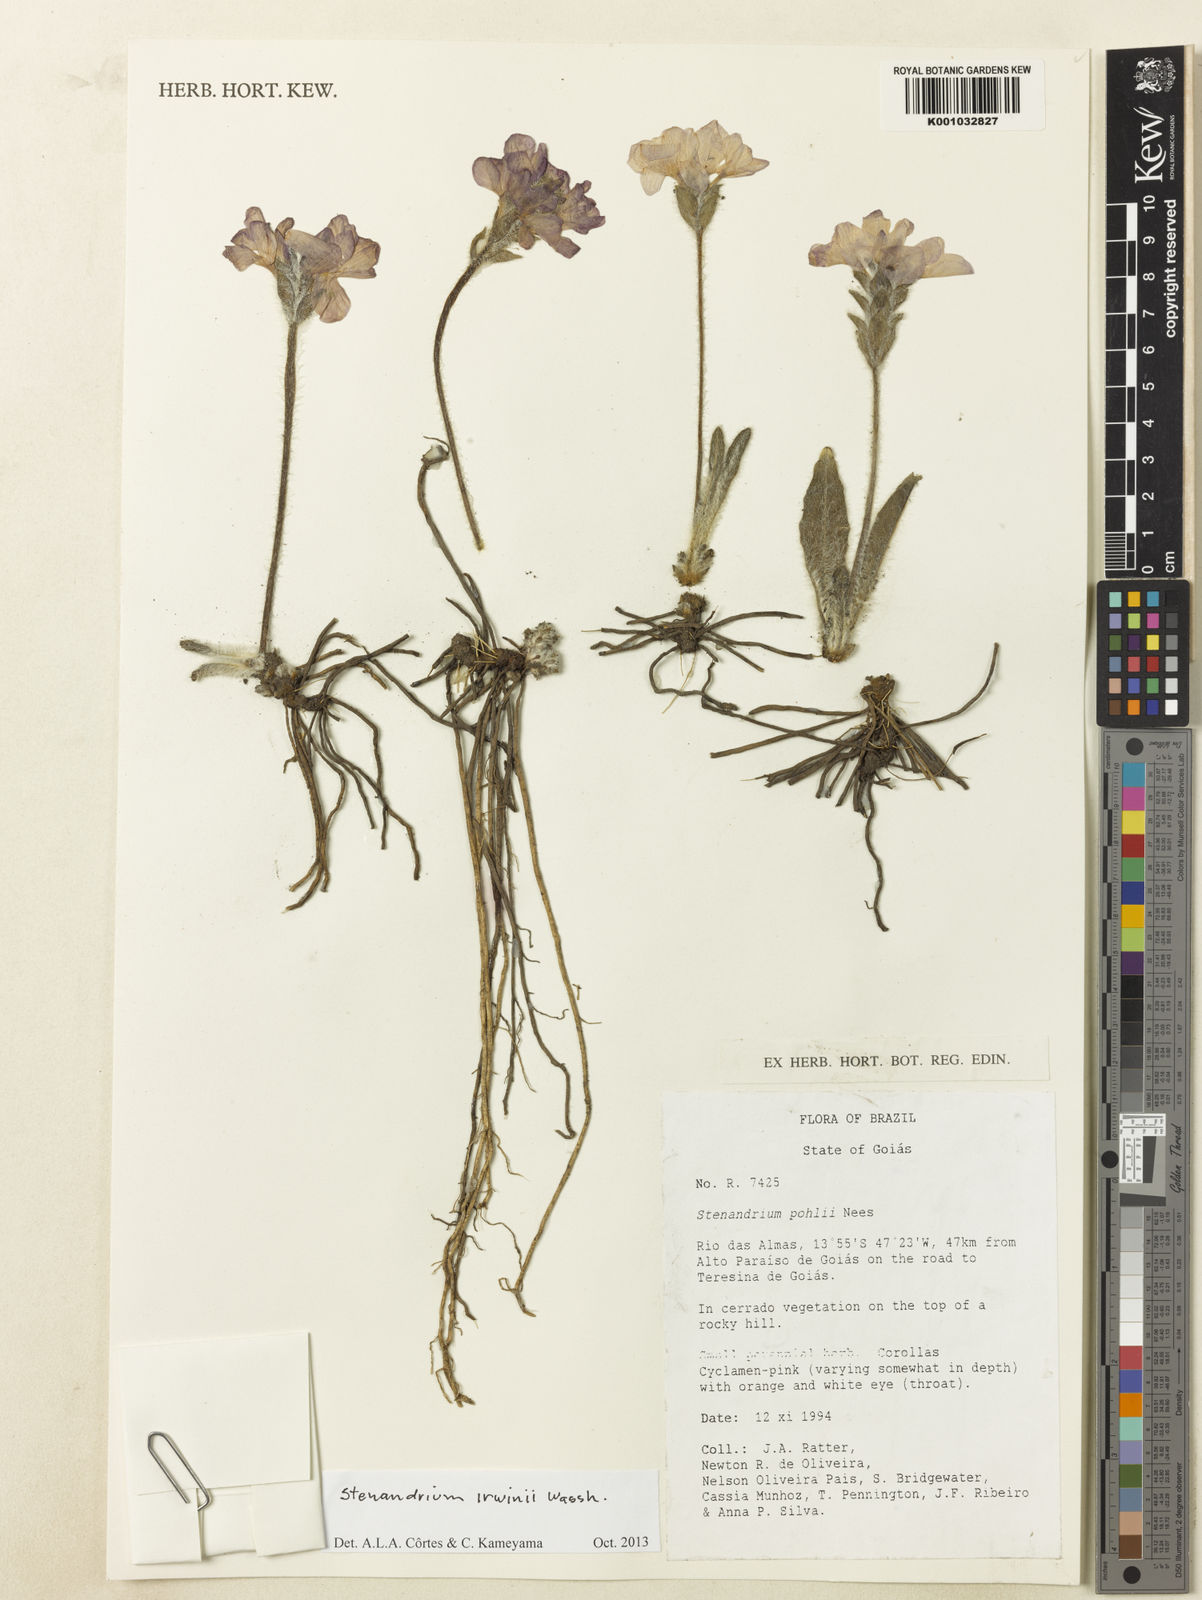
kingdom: Plantae
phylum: Tracheophyta
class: Magnoliopsida
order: Lamiales
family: Acanthaceae
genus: Stenandrium
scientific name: Stenandrium irwinii
